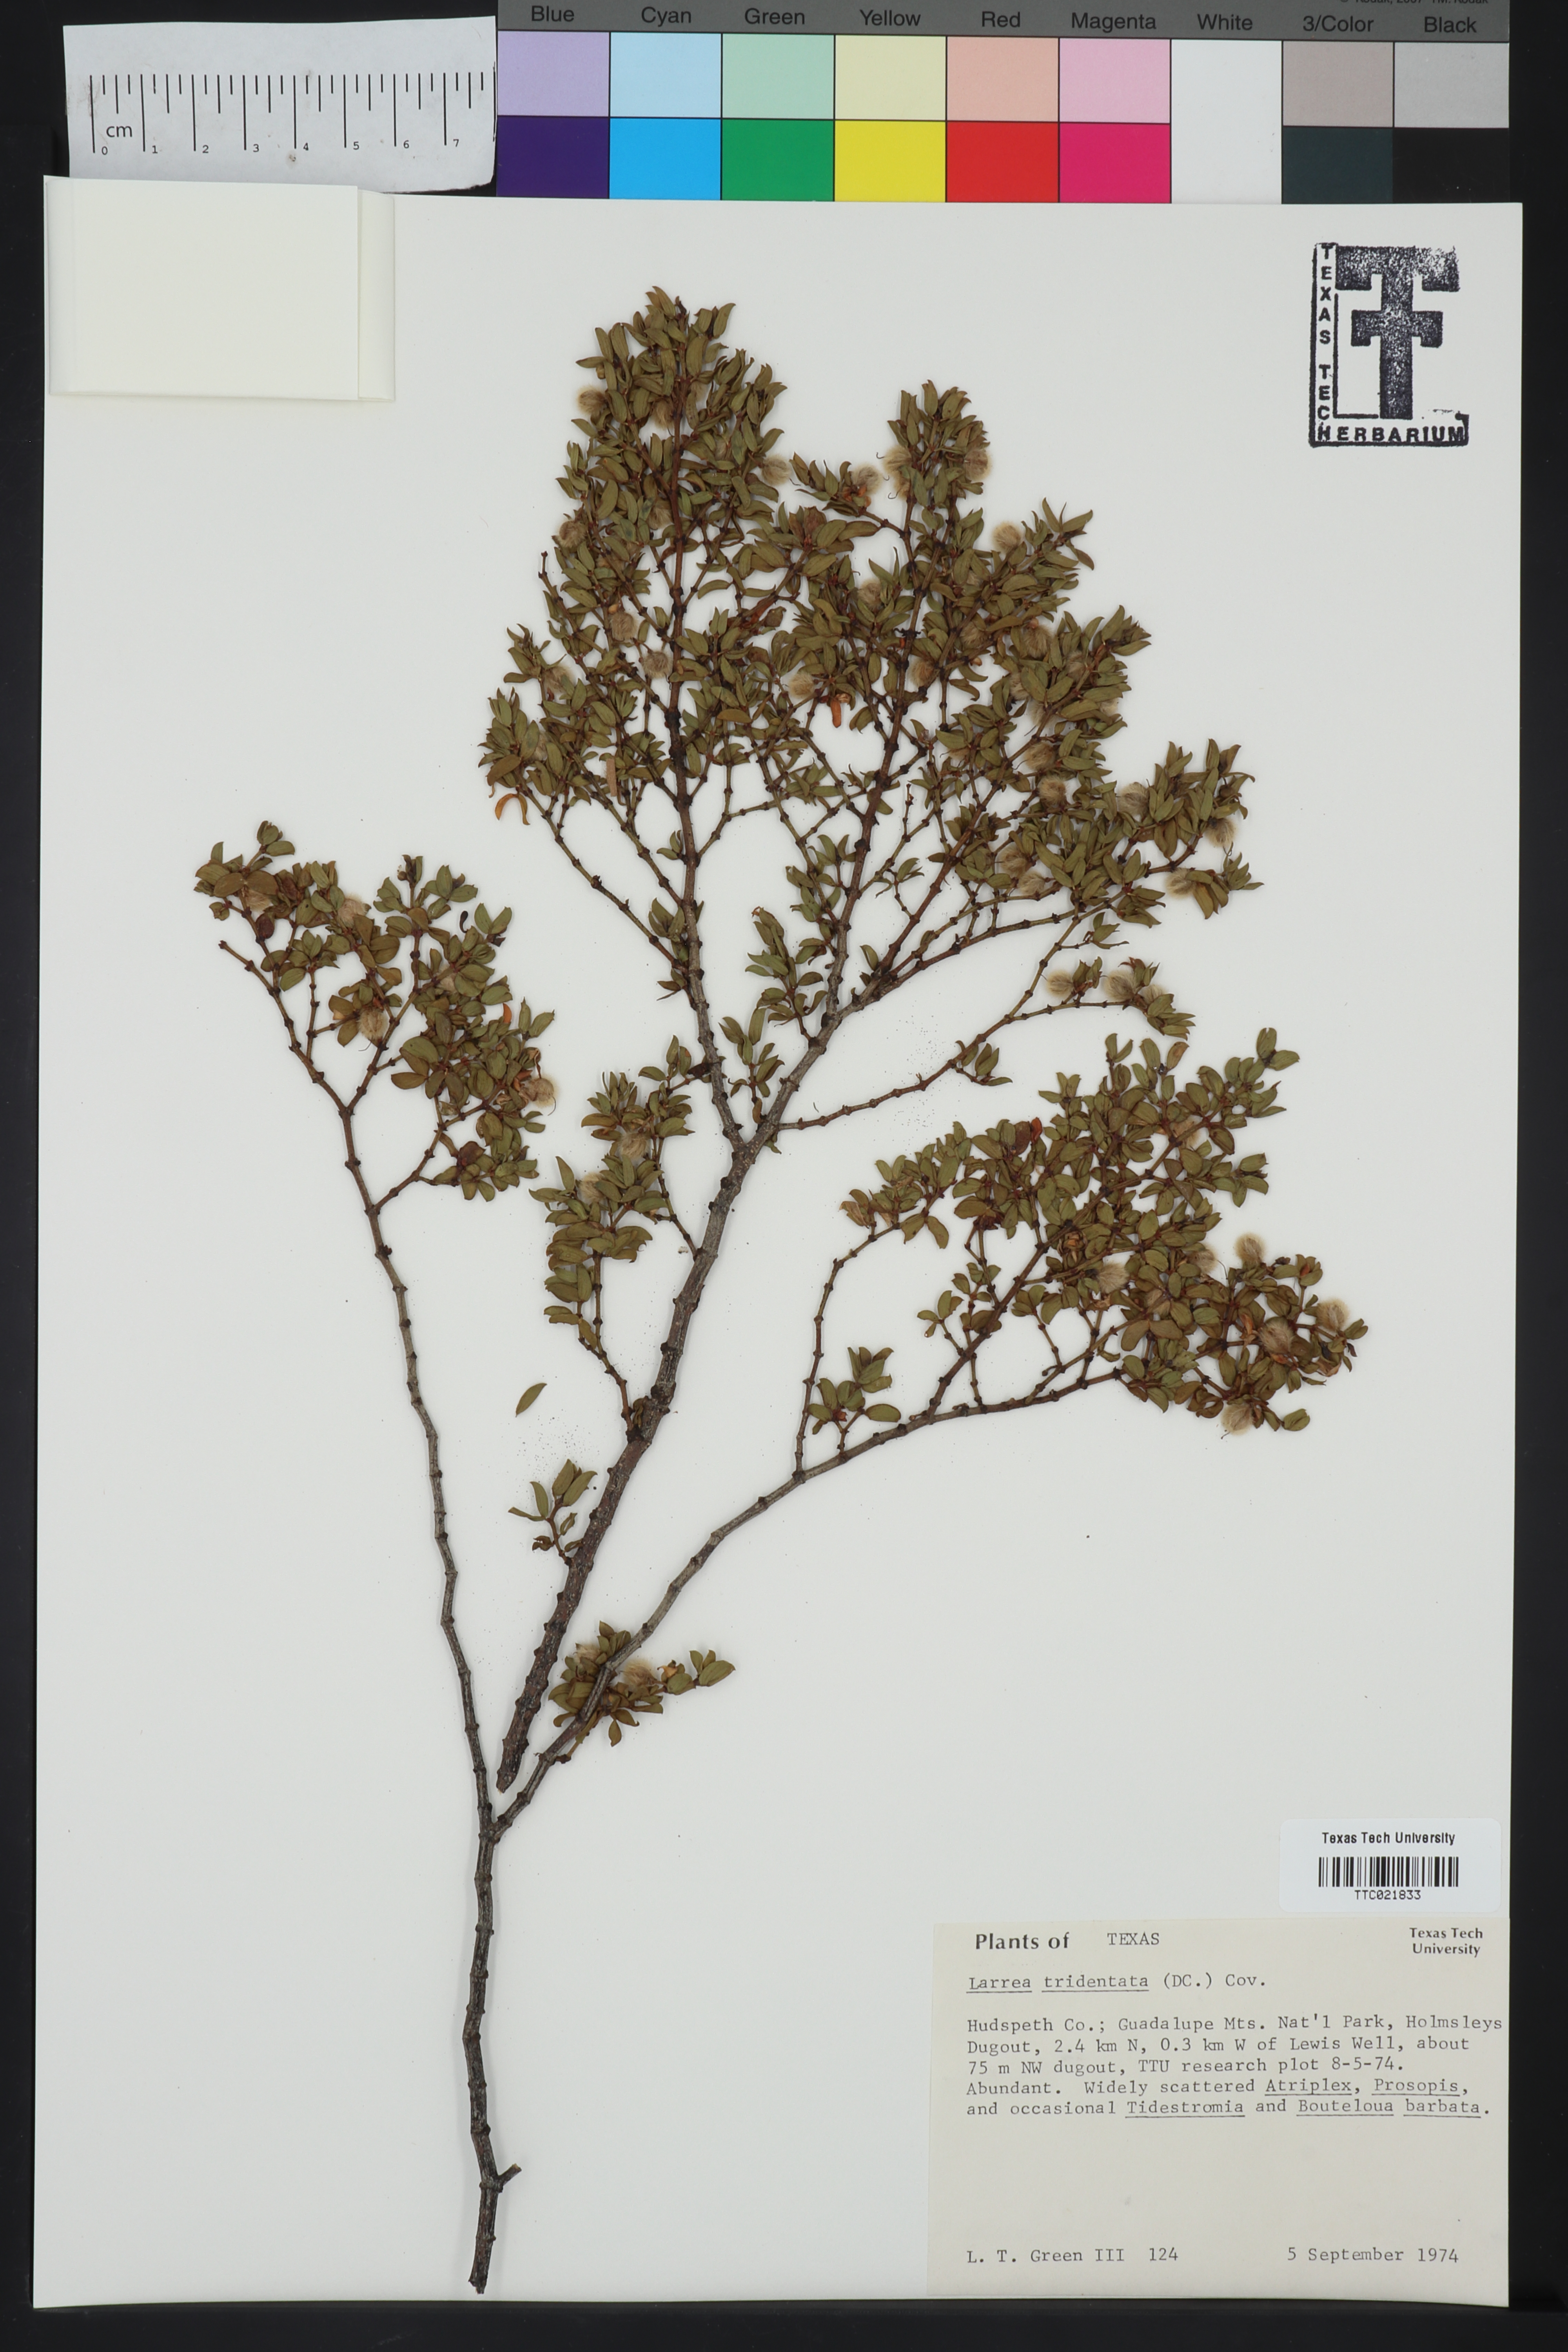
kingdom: Plantae
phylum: Tracheophyta
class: Magnoliopsida
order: Zygophyllales
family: Zygophyllaceae
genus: Larrea
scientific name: Larrea tridentata
